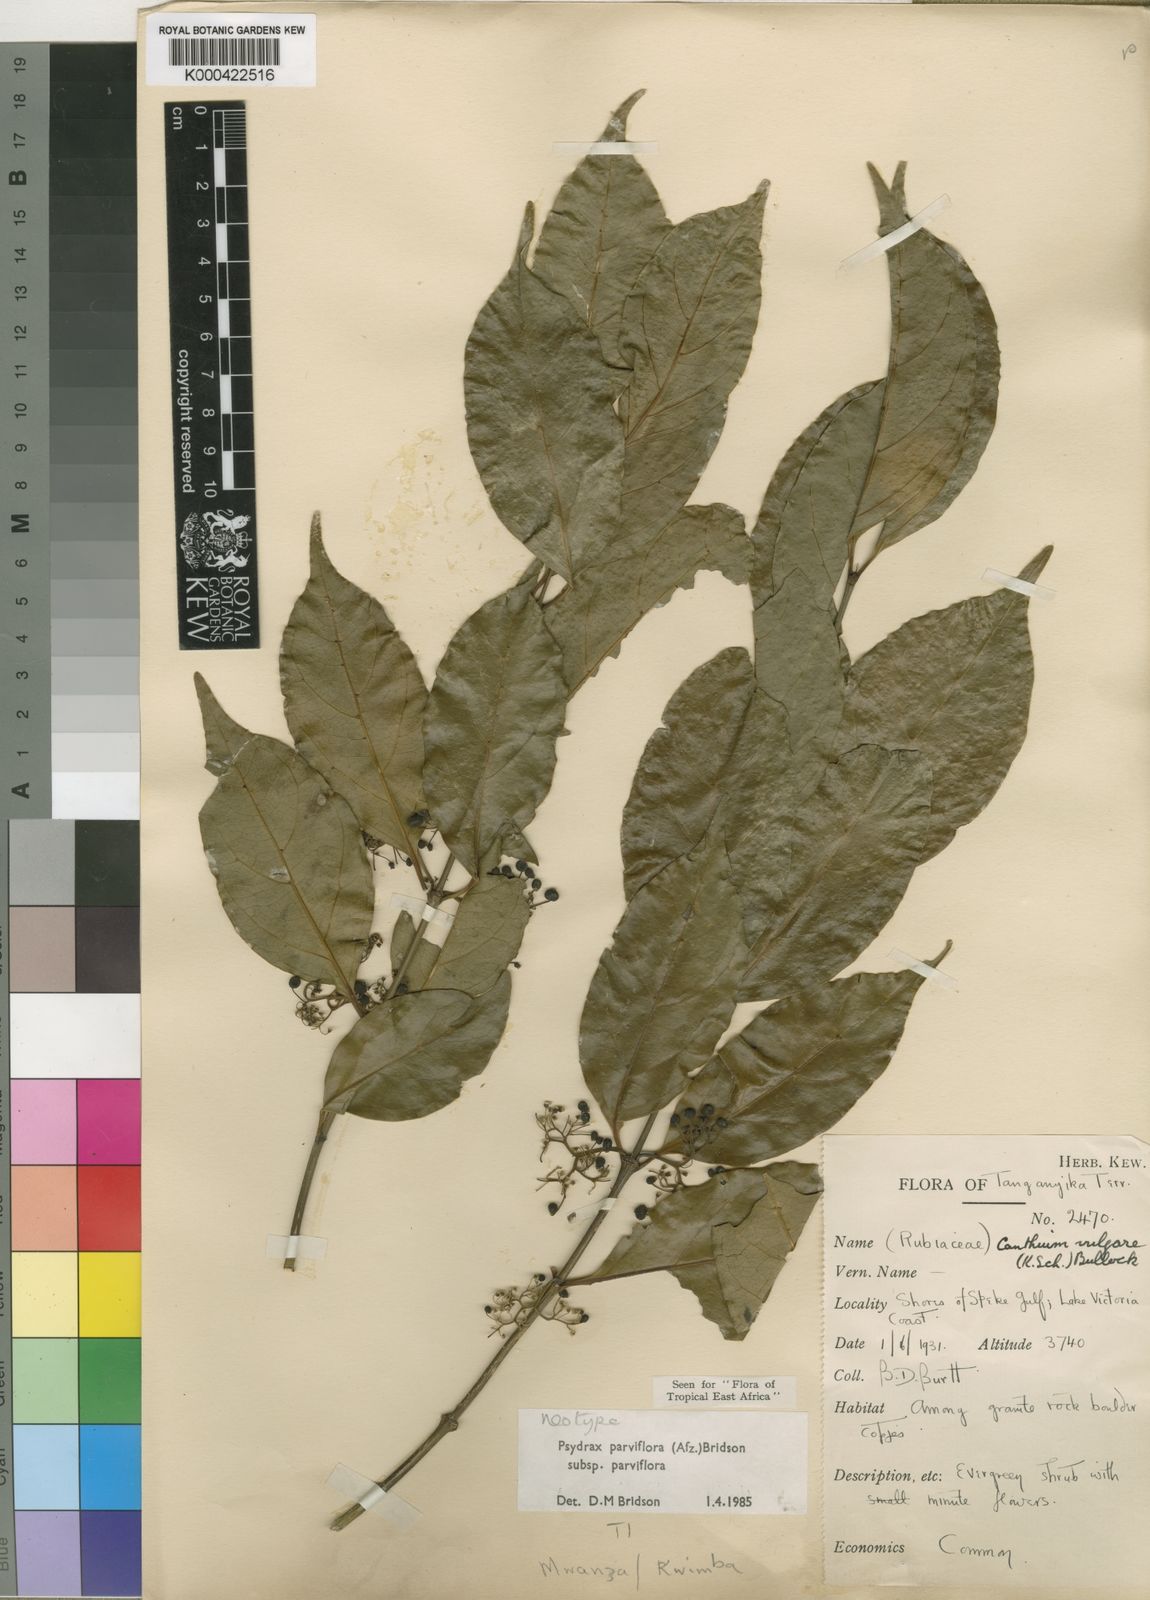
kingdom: Plantae
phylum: Tracheophyta
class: Magnoliopsida
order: Gentianales
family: Rubiaceae
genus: Psydrax
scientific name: Psydrax parviflorus
